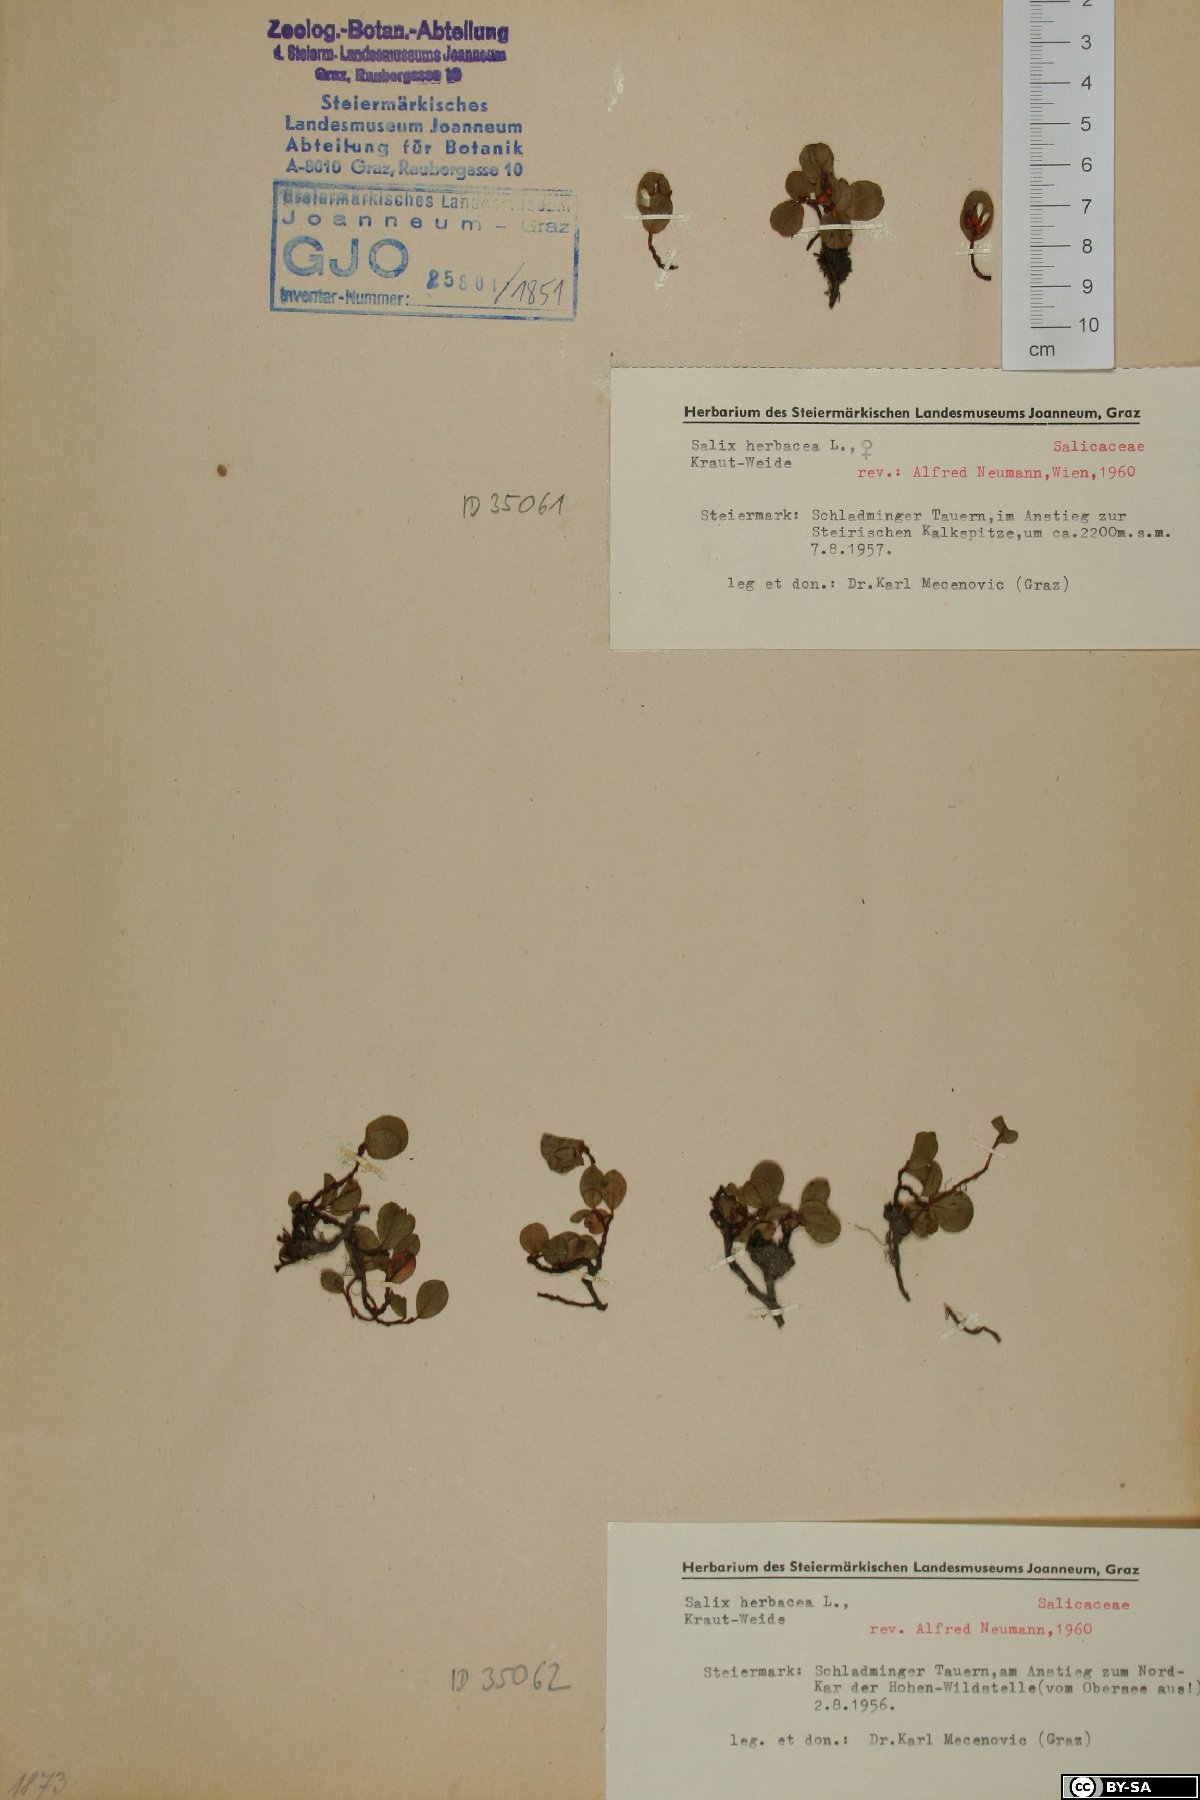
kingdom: Plantae
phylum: Tracheophyta
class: Magnoliopsida
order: Malpighiales
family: Salicaceae
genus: Salix
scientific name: Salix herbacea
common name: Dwarf willow
